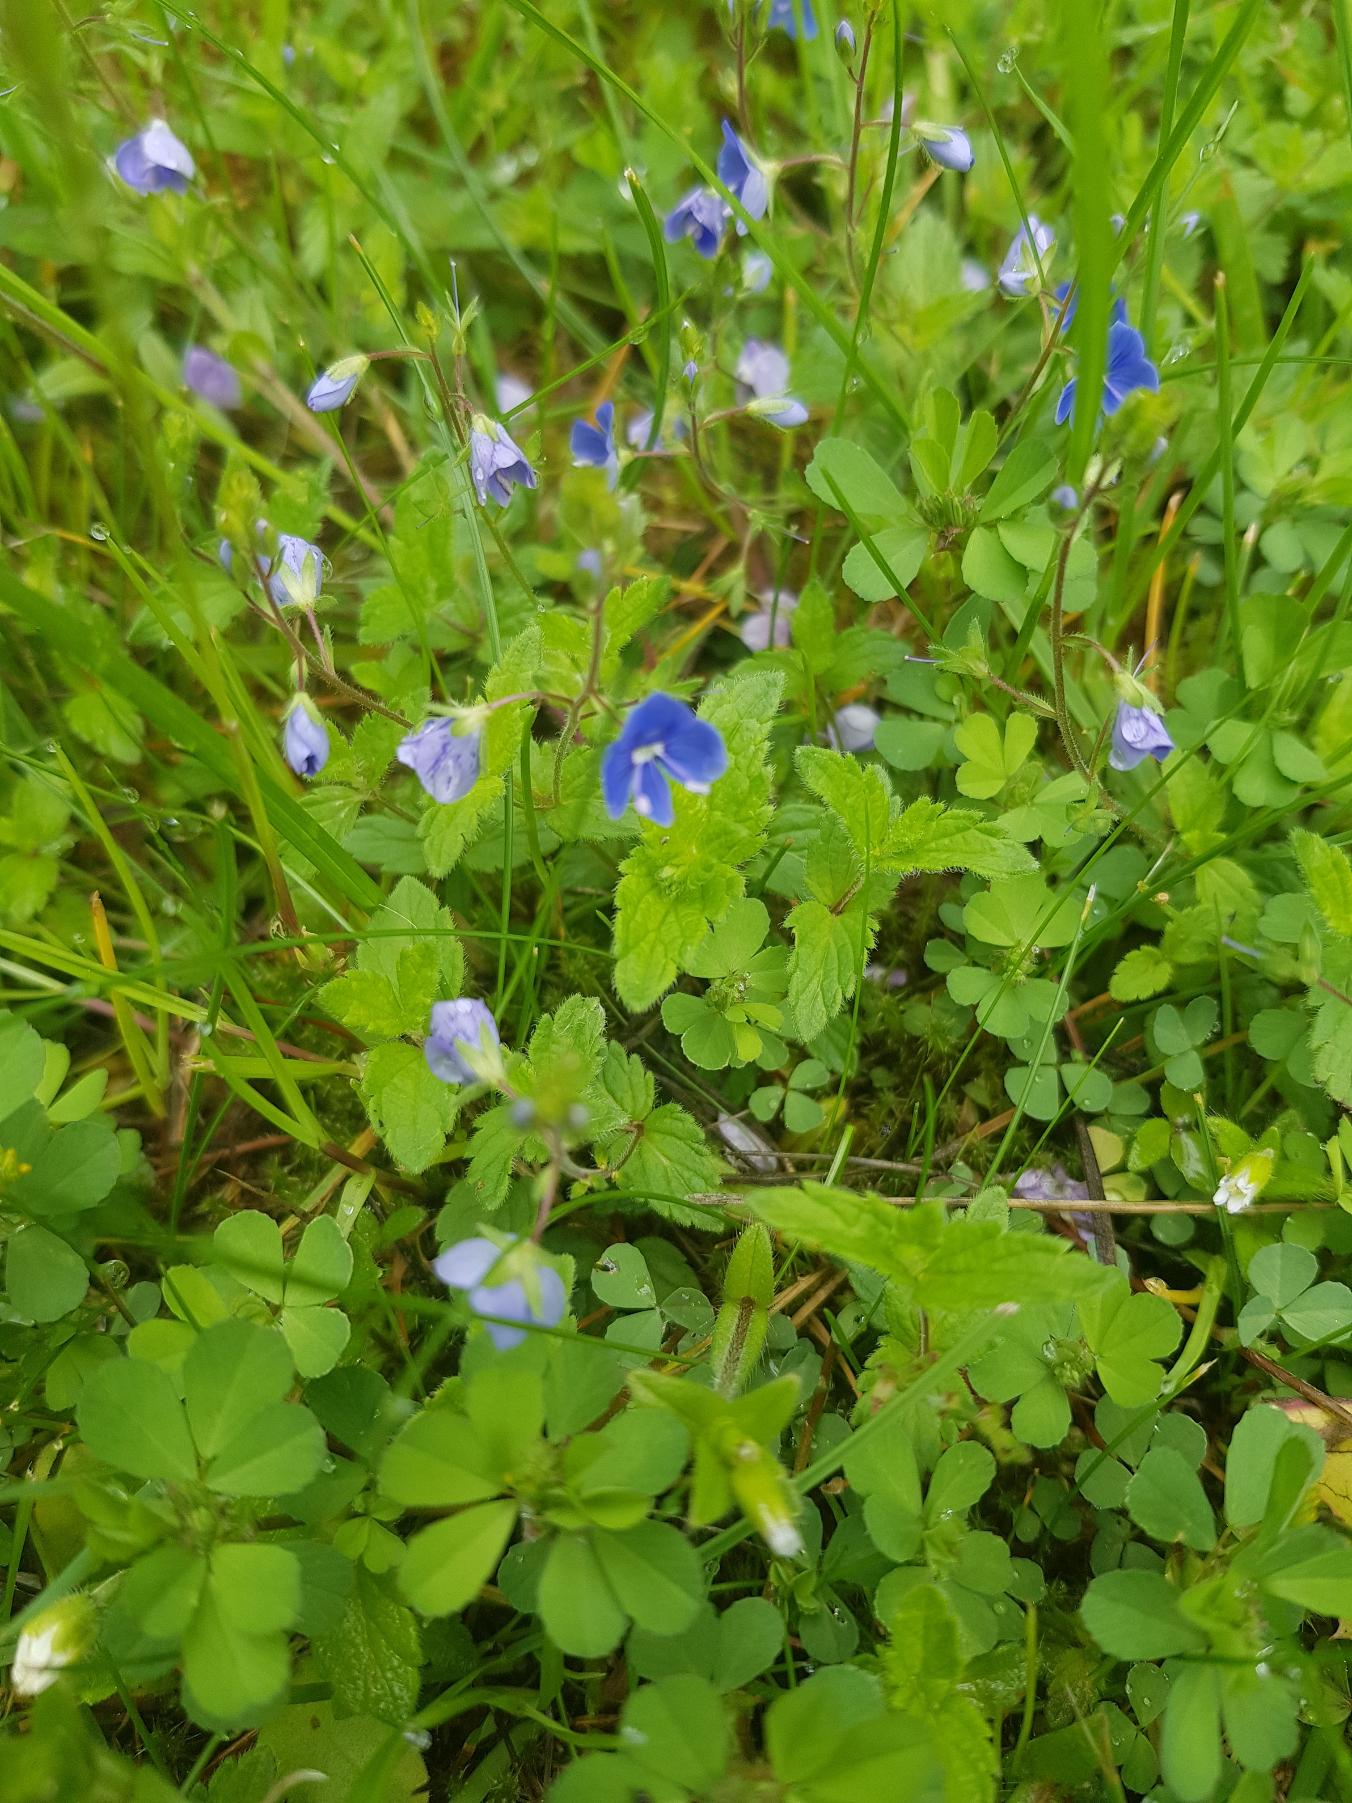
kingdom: Plantae
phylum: Tracheophyta
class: Magnoliopsida
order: Lamiales
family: Plantaginaceae
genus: Veronica
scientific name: Veronica chamaedrys
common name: Tveskægget ærenpris
